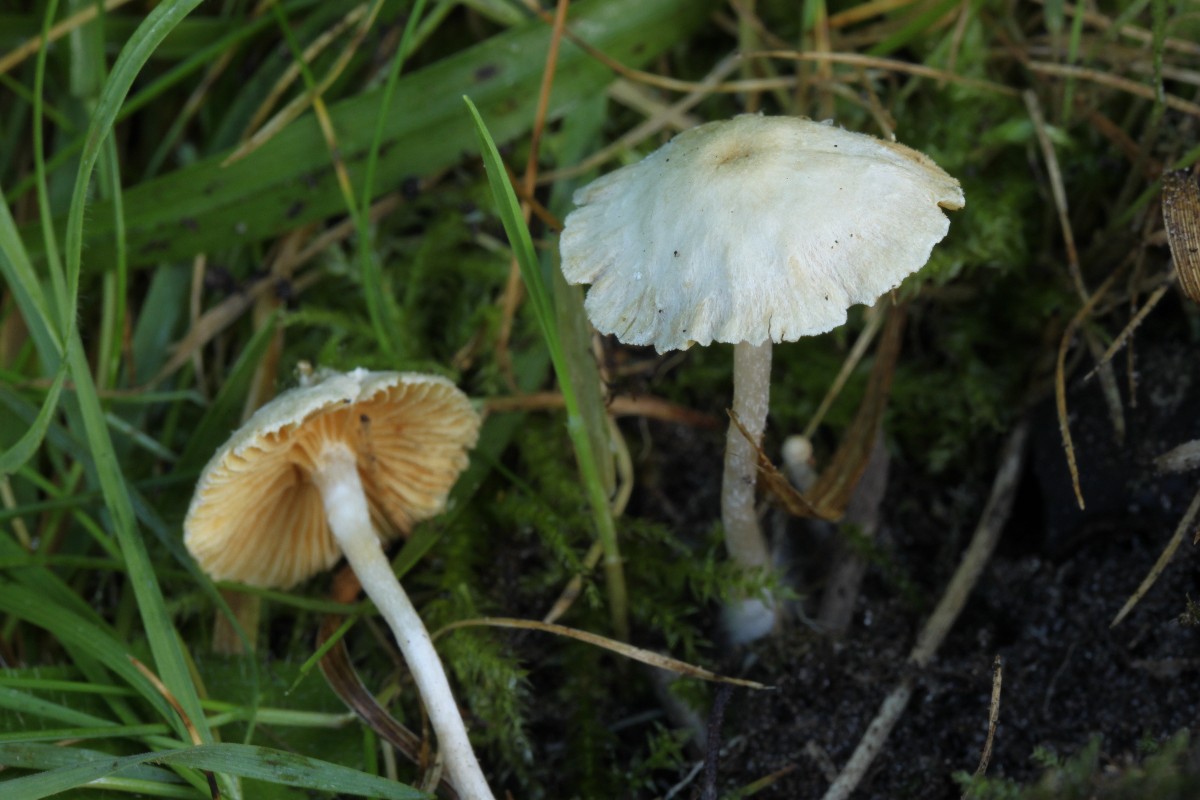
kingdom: Fungi
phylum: Basidiomycota
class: Agaricomycetes
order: Agaricales
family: Tubariaceae
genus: Tubaria
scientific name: Tubaria dispersa
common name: tjørne-fnughat
